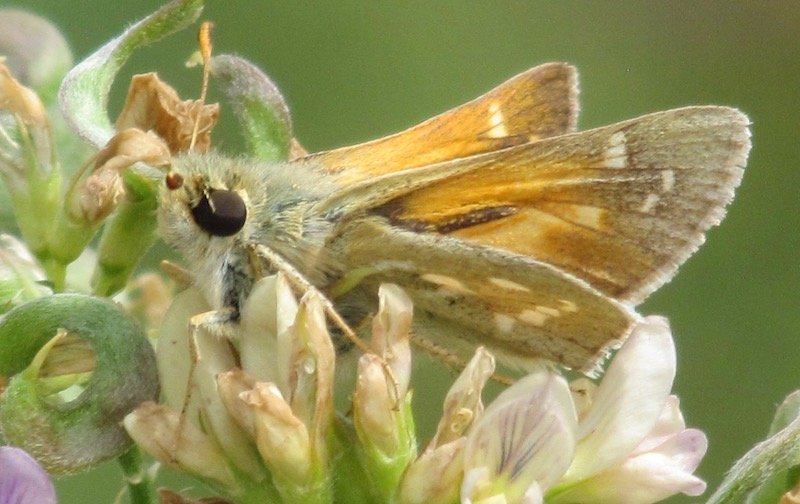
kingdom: Animalia
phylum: Arthropoda
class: Insecta
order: Lepidoptera
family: Hesperiidae
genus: Hesperia
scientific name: Hesperia comma
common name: Common Branded Skipper
